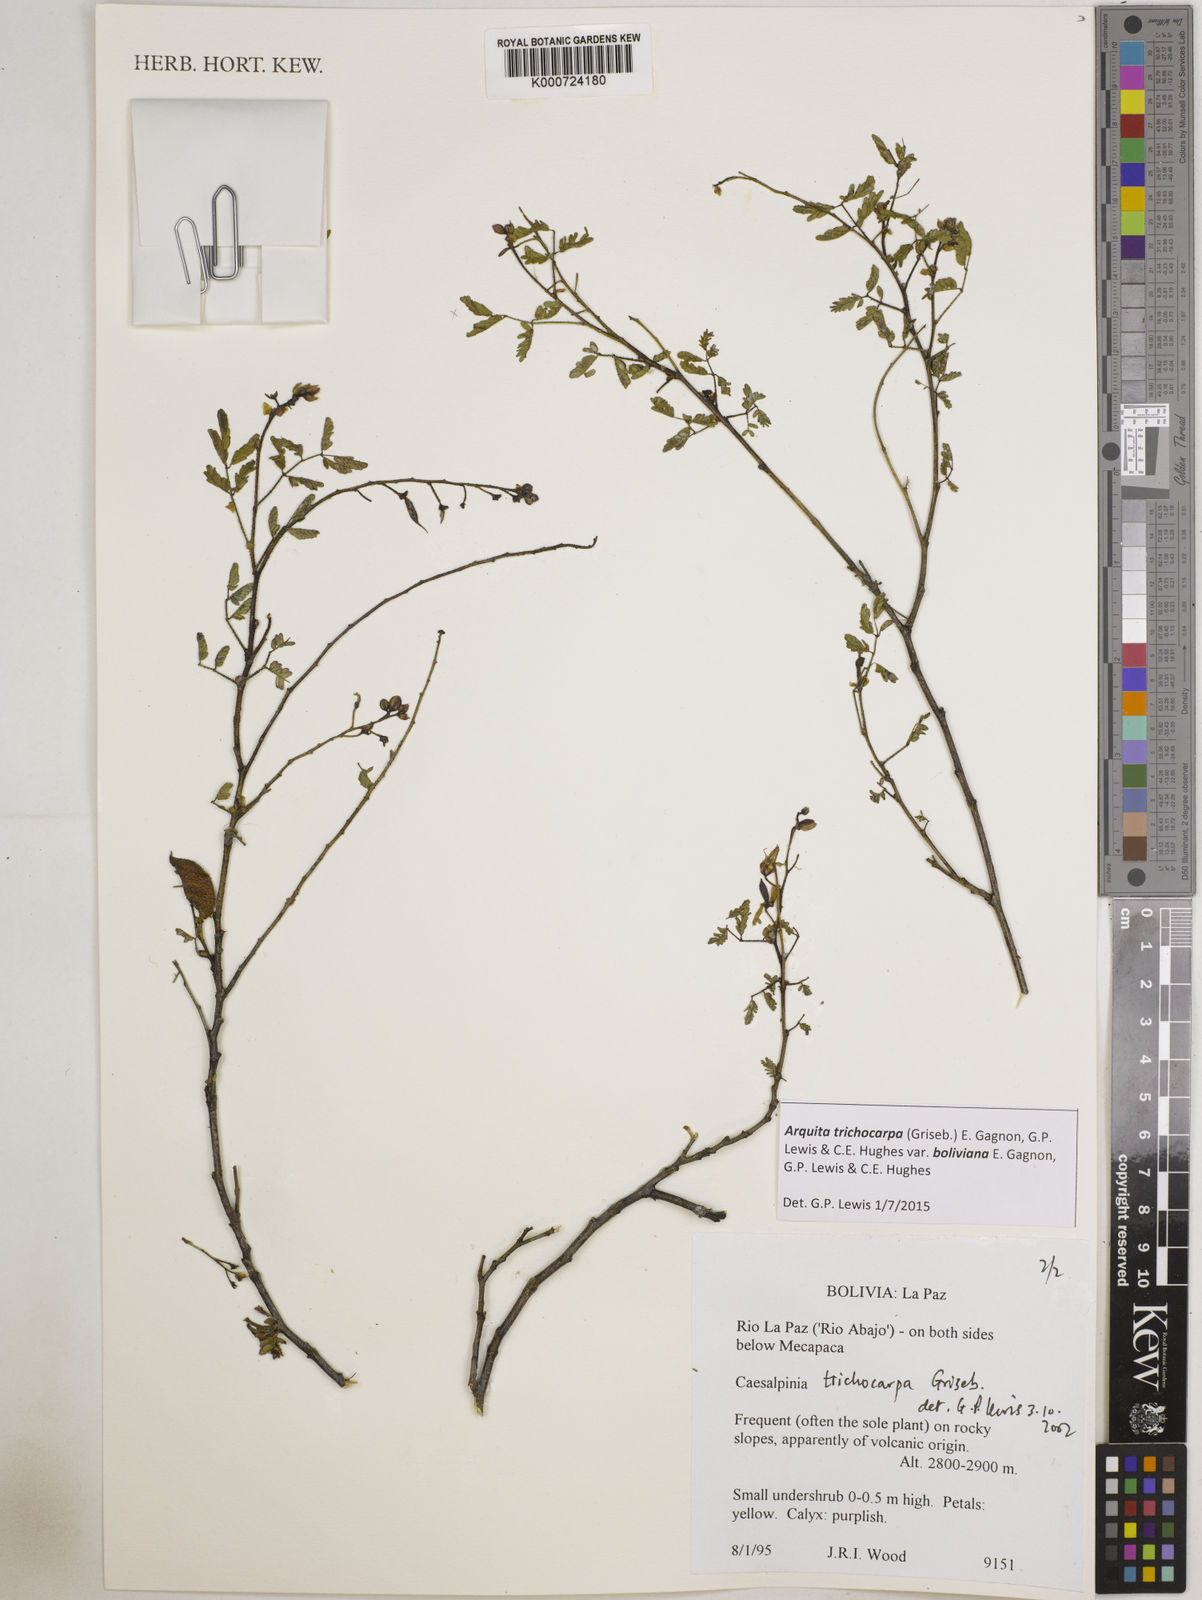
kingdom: Plantae
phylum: Tracheophyta
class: Magnoliopsida
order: Fabales
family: Fabaceae
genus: Arquita
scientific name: Arquita trichocarpa
